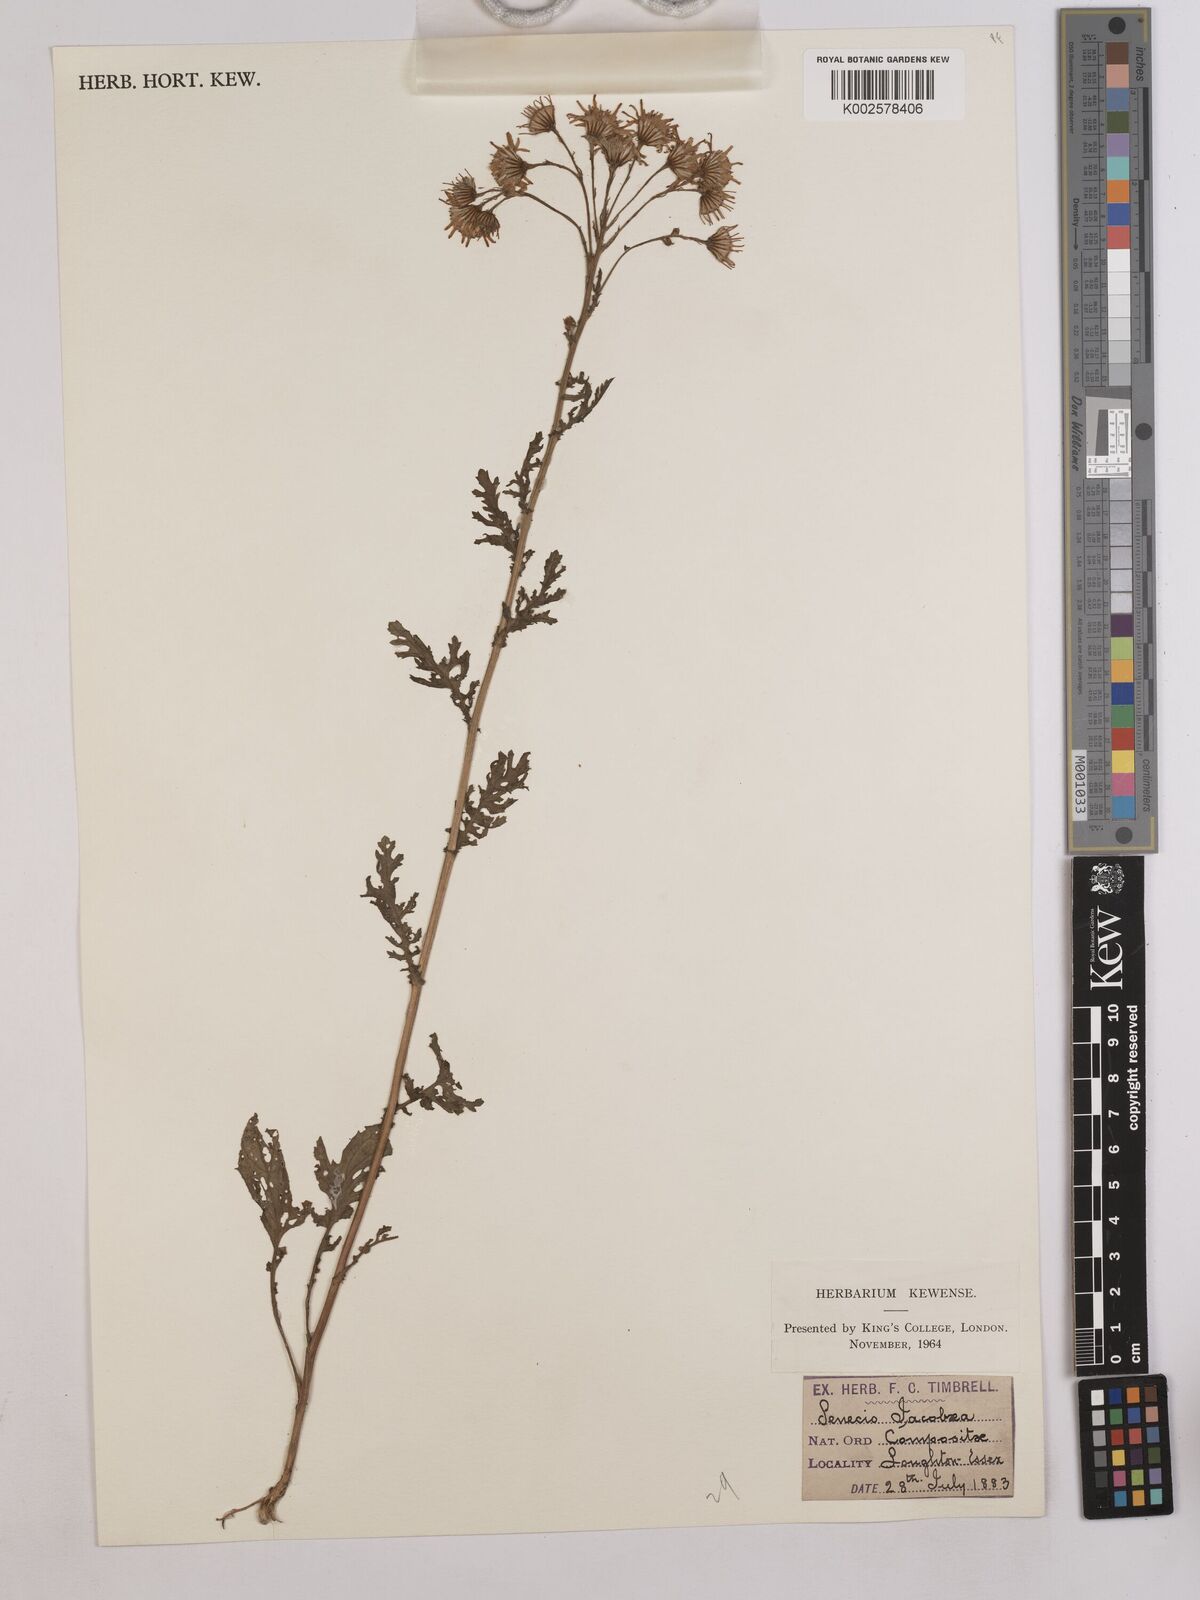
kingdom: Plantae
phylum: Tracheophyta
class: Magnoliopsida
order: Asterales
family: Asteraceae
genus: Jacobaea
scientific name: Jacobaea vulgaris
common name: Stinking willie
